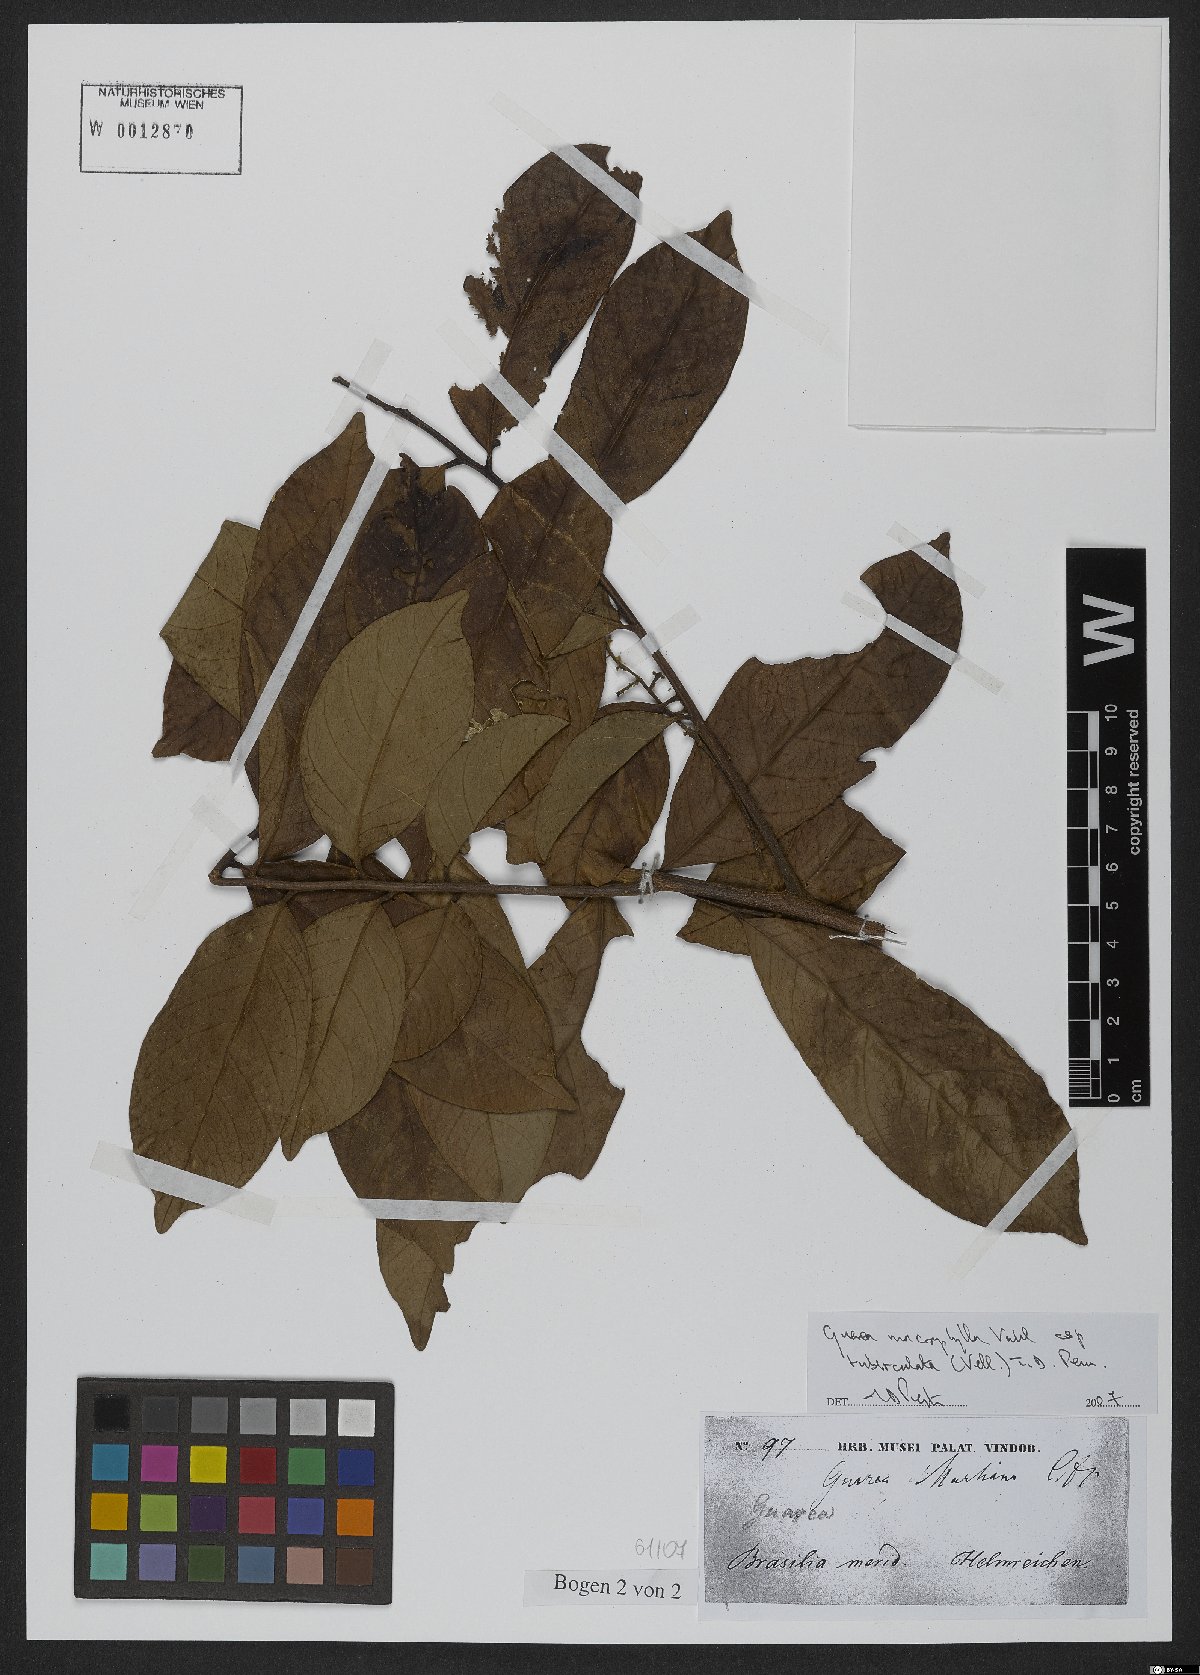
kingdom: Plantae
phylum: Tracheophyta
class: Magnoliopsida
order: Sapindales
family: Meliaceae
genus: Guarea
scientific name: Guarea macrophylla
